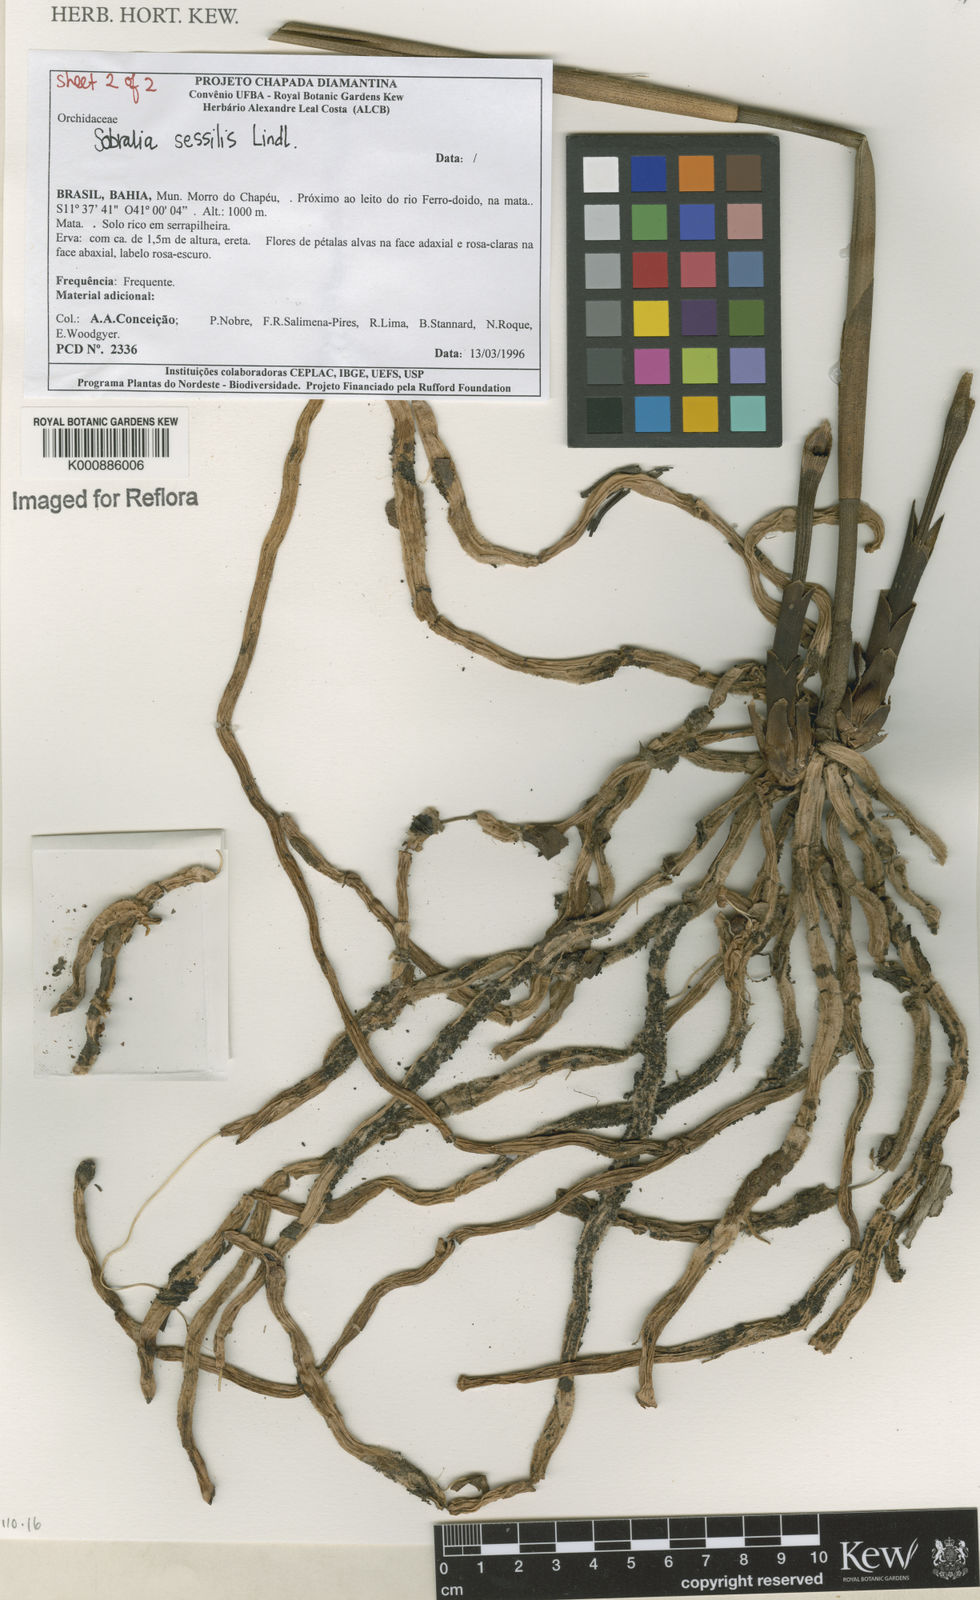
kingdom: Plantae
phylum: Tracheophyta
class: Liliopsida
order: Asparagales
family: Orchidaceae
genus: Sobralia
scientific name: Sobralia sessilis
